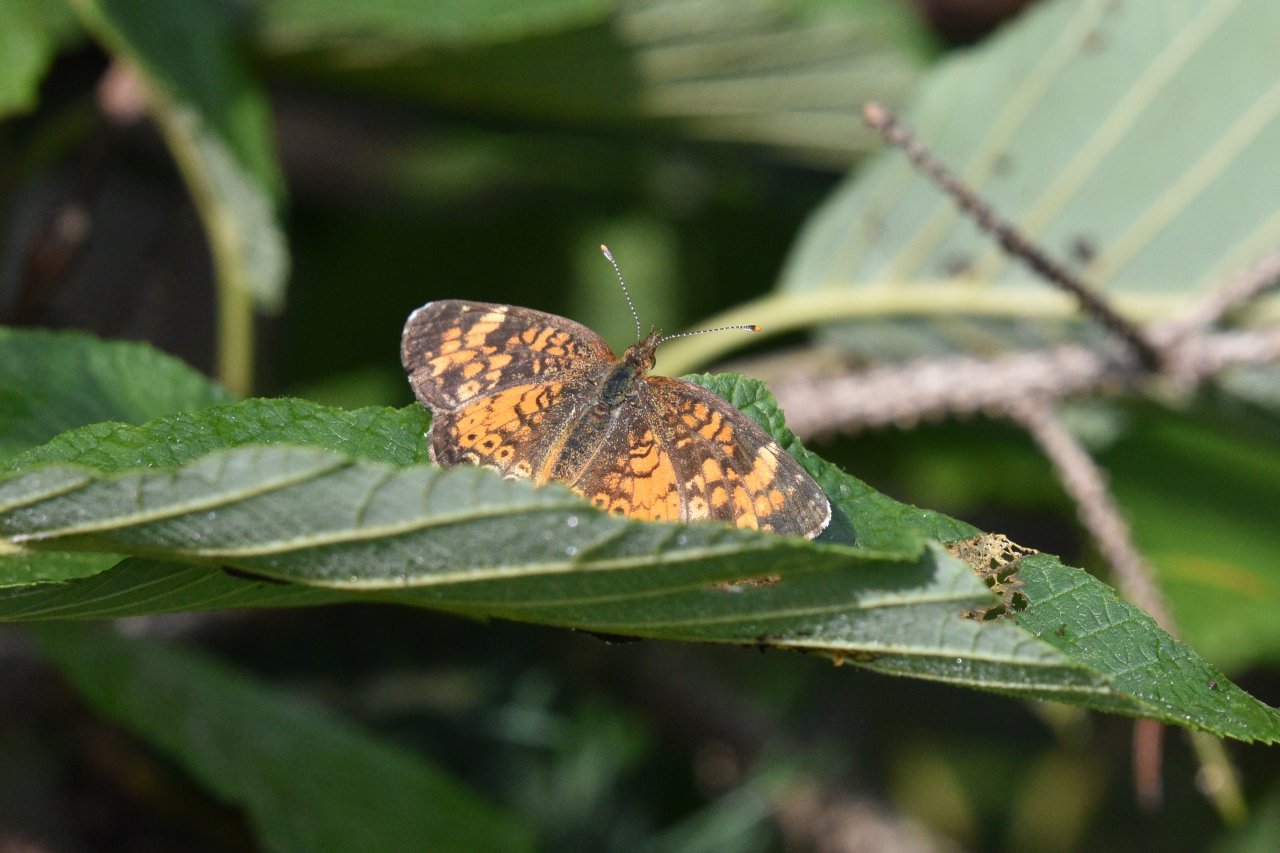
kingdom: Animalia
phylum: Arthropoda
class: Insecta
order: Lepidoptera
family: Nymphalidae
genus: Phyciodes
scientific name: Phyciodes tharos
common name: Northern Crescent
